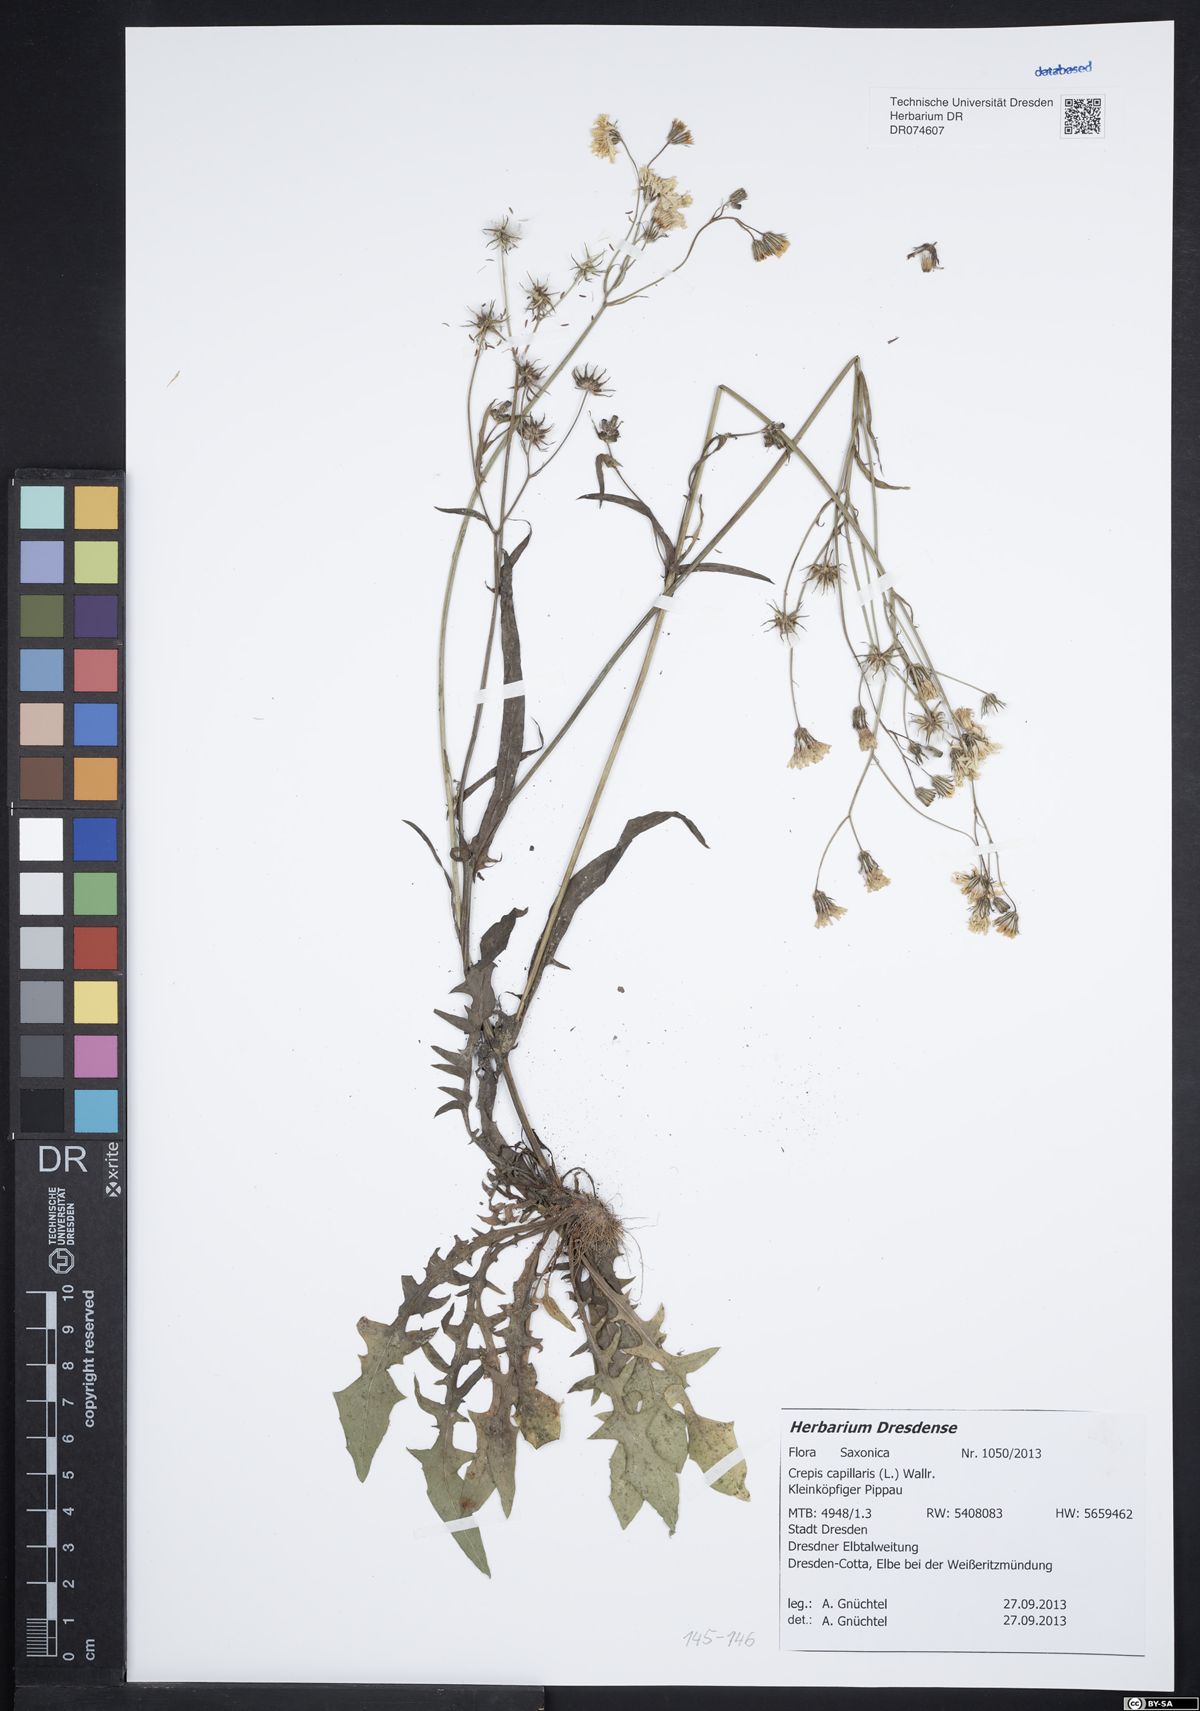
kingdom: Plantae
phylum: Tracheophyta
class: Magnoliopsida
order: Asterales
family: Asteraceae
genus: Crepis
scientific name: Crepis capillaris
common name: Smooth hawksbeard
